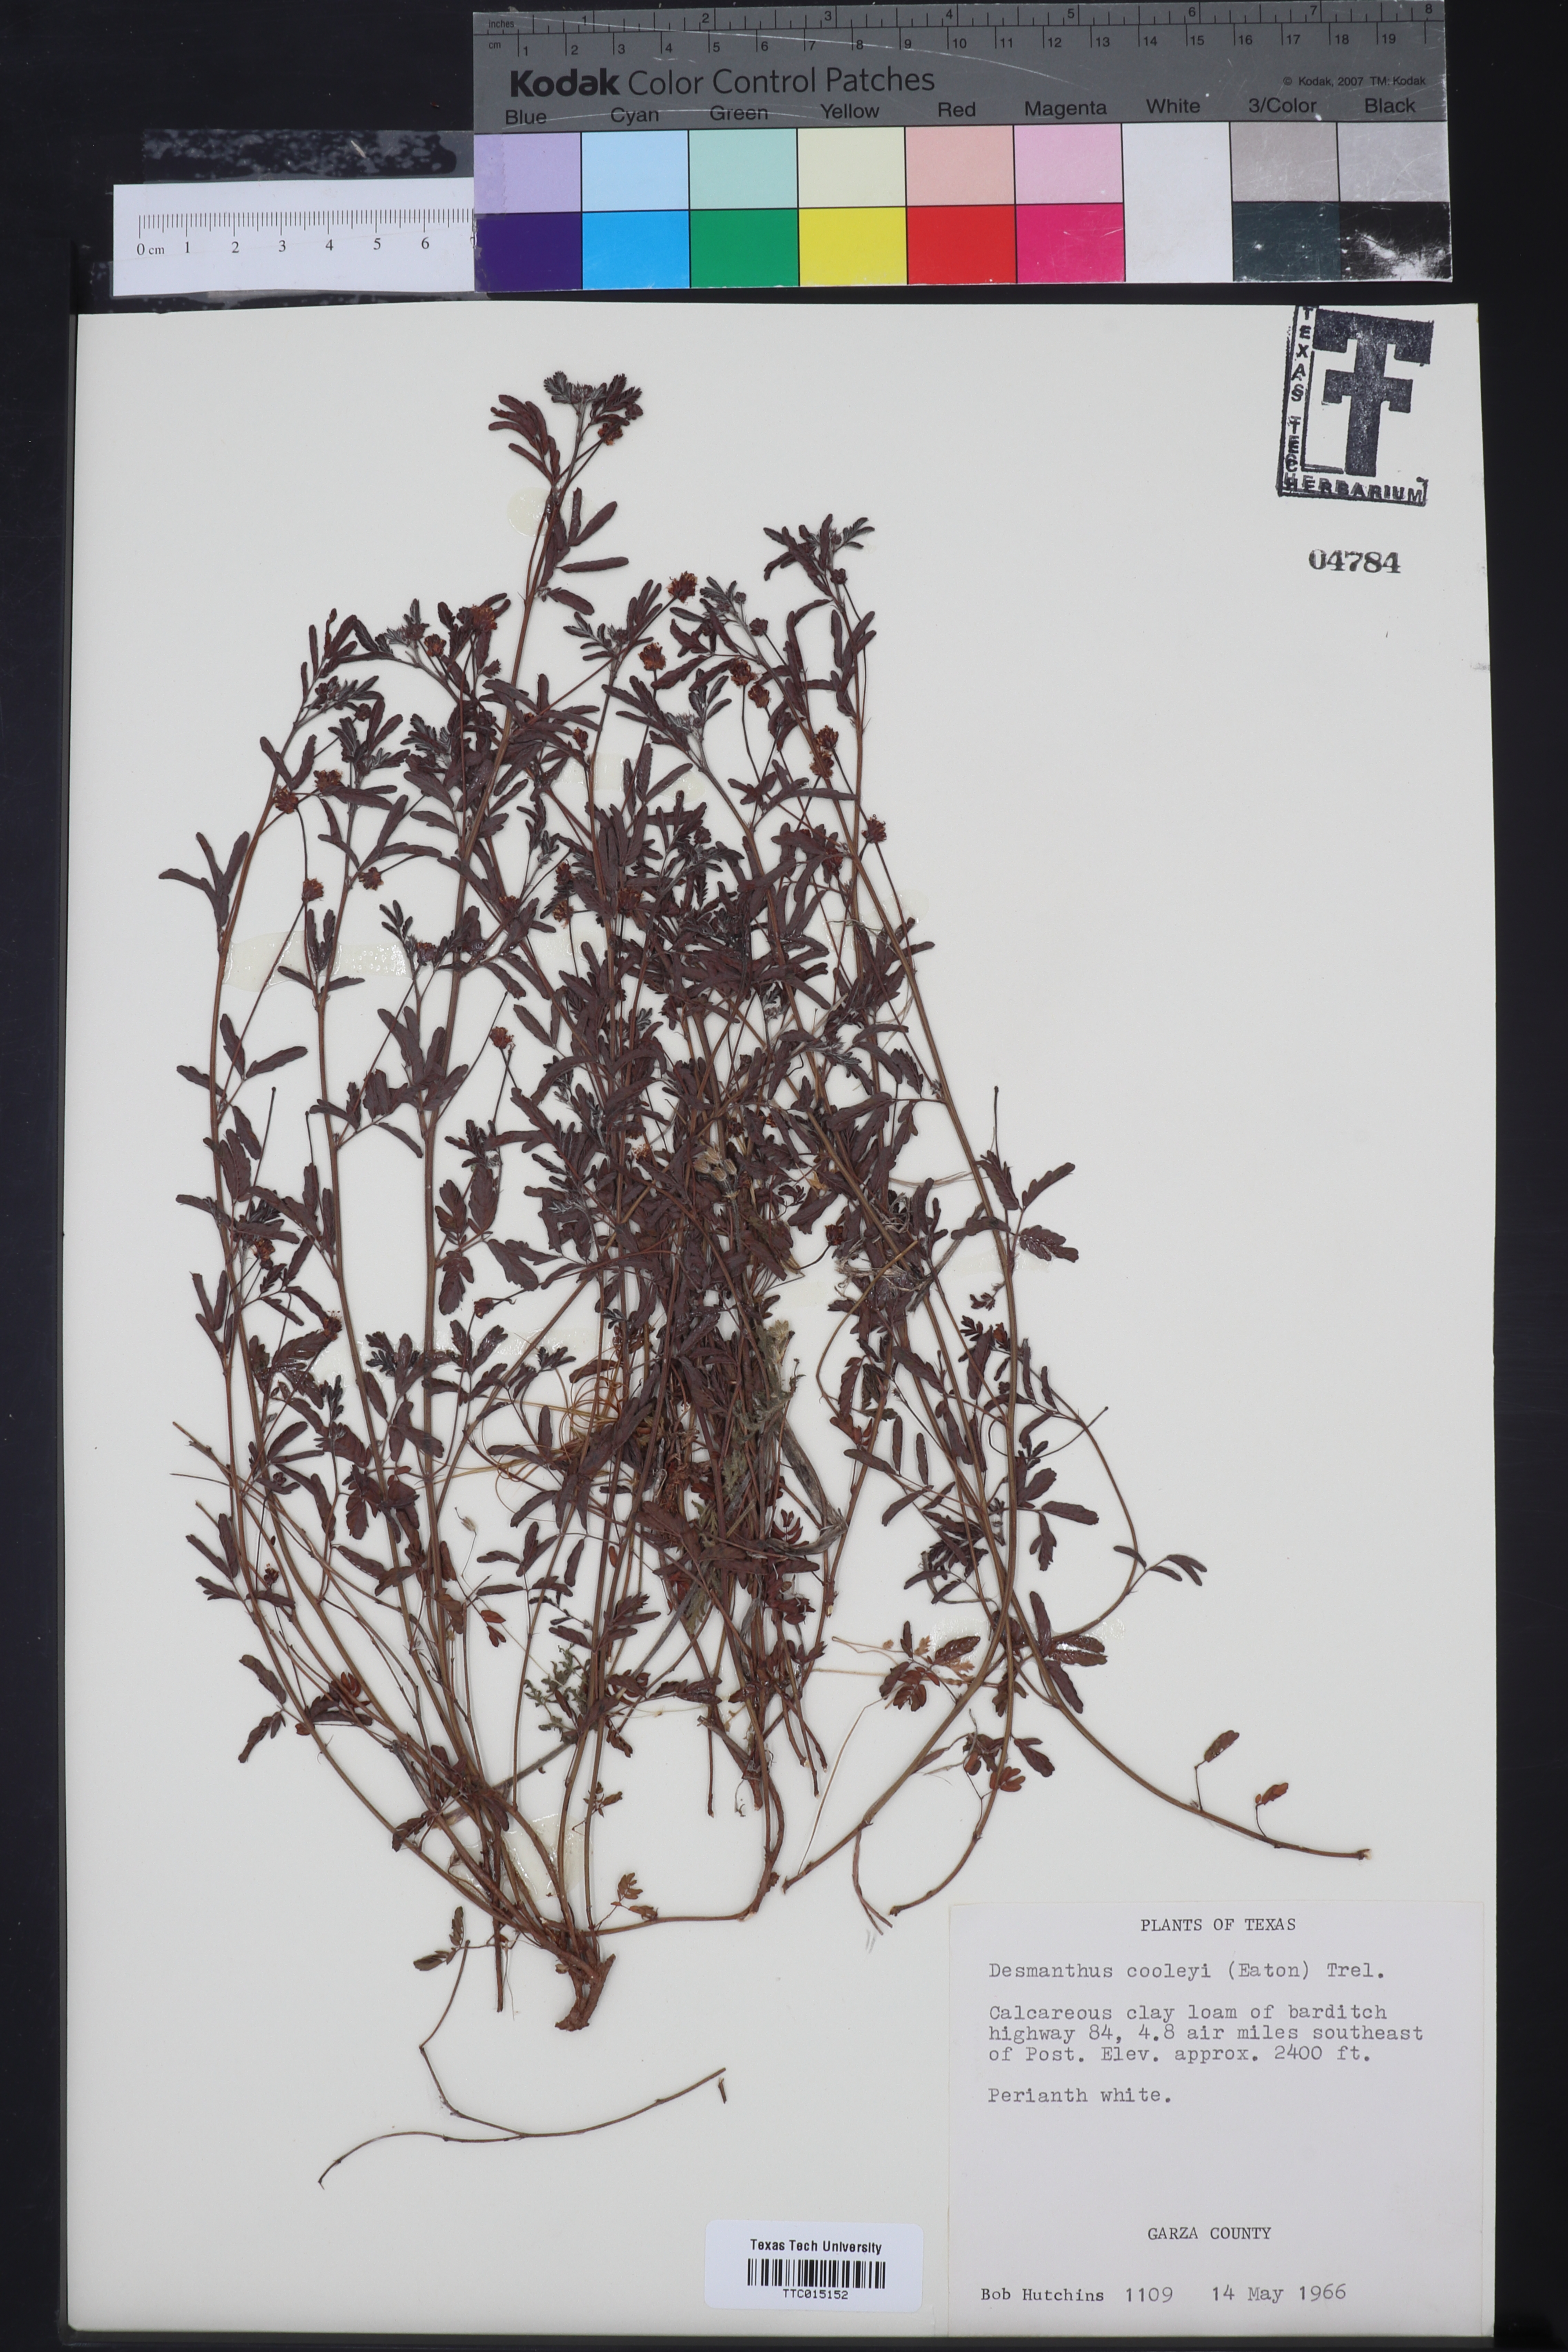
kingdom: Plantae
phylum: Tracheophyta
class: Magnoliopsida
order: Fabales
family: Fabaceae
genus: Desmanthus
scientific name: Desmanthus cooleyi
